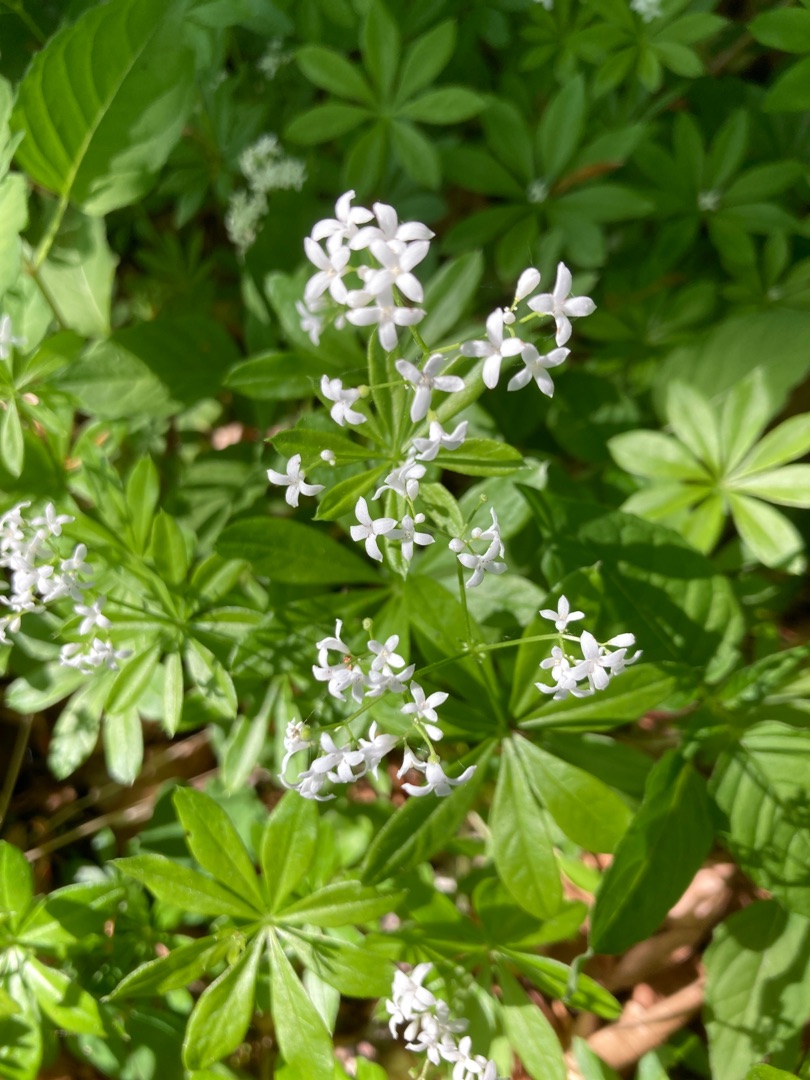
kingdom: Plantae
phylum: Tracheophyta
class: Magnoliopsida
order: Gentianales
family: Rubiaceae
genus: Galium
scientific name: Galium odoratum
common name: Skovmærke
